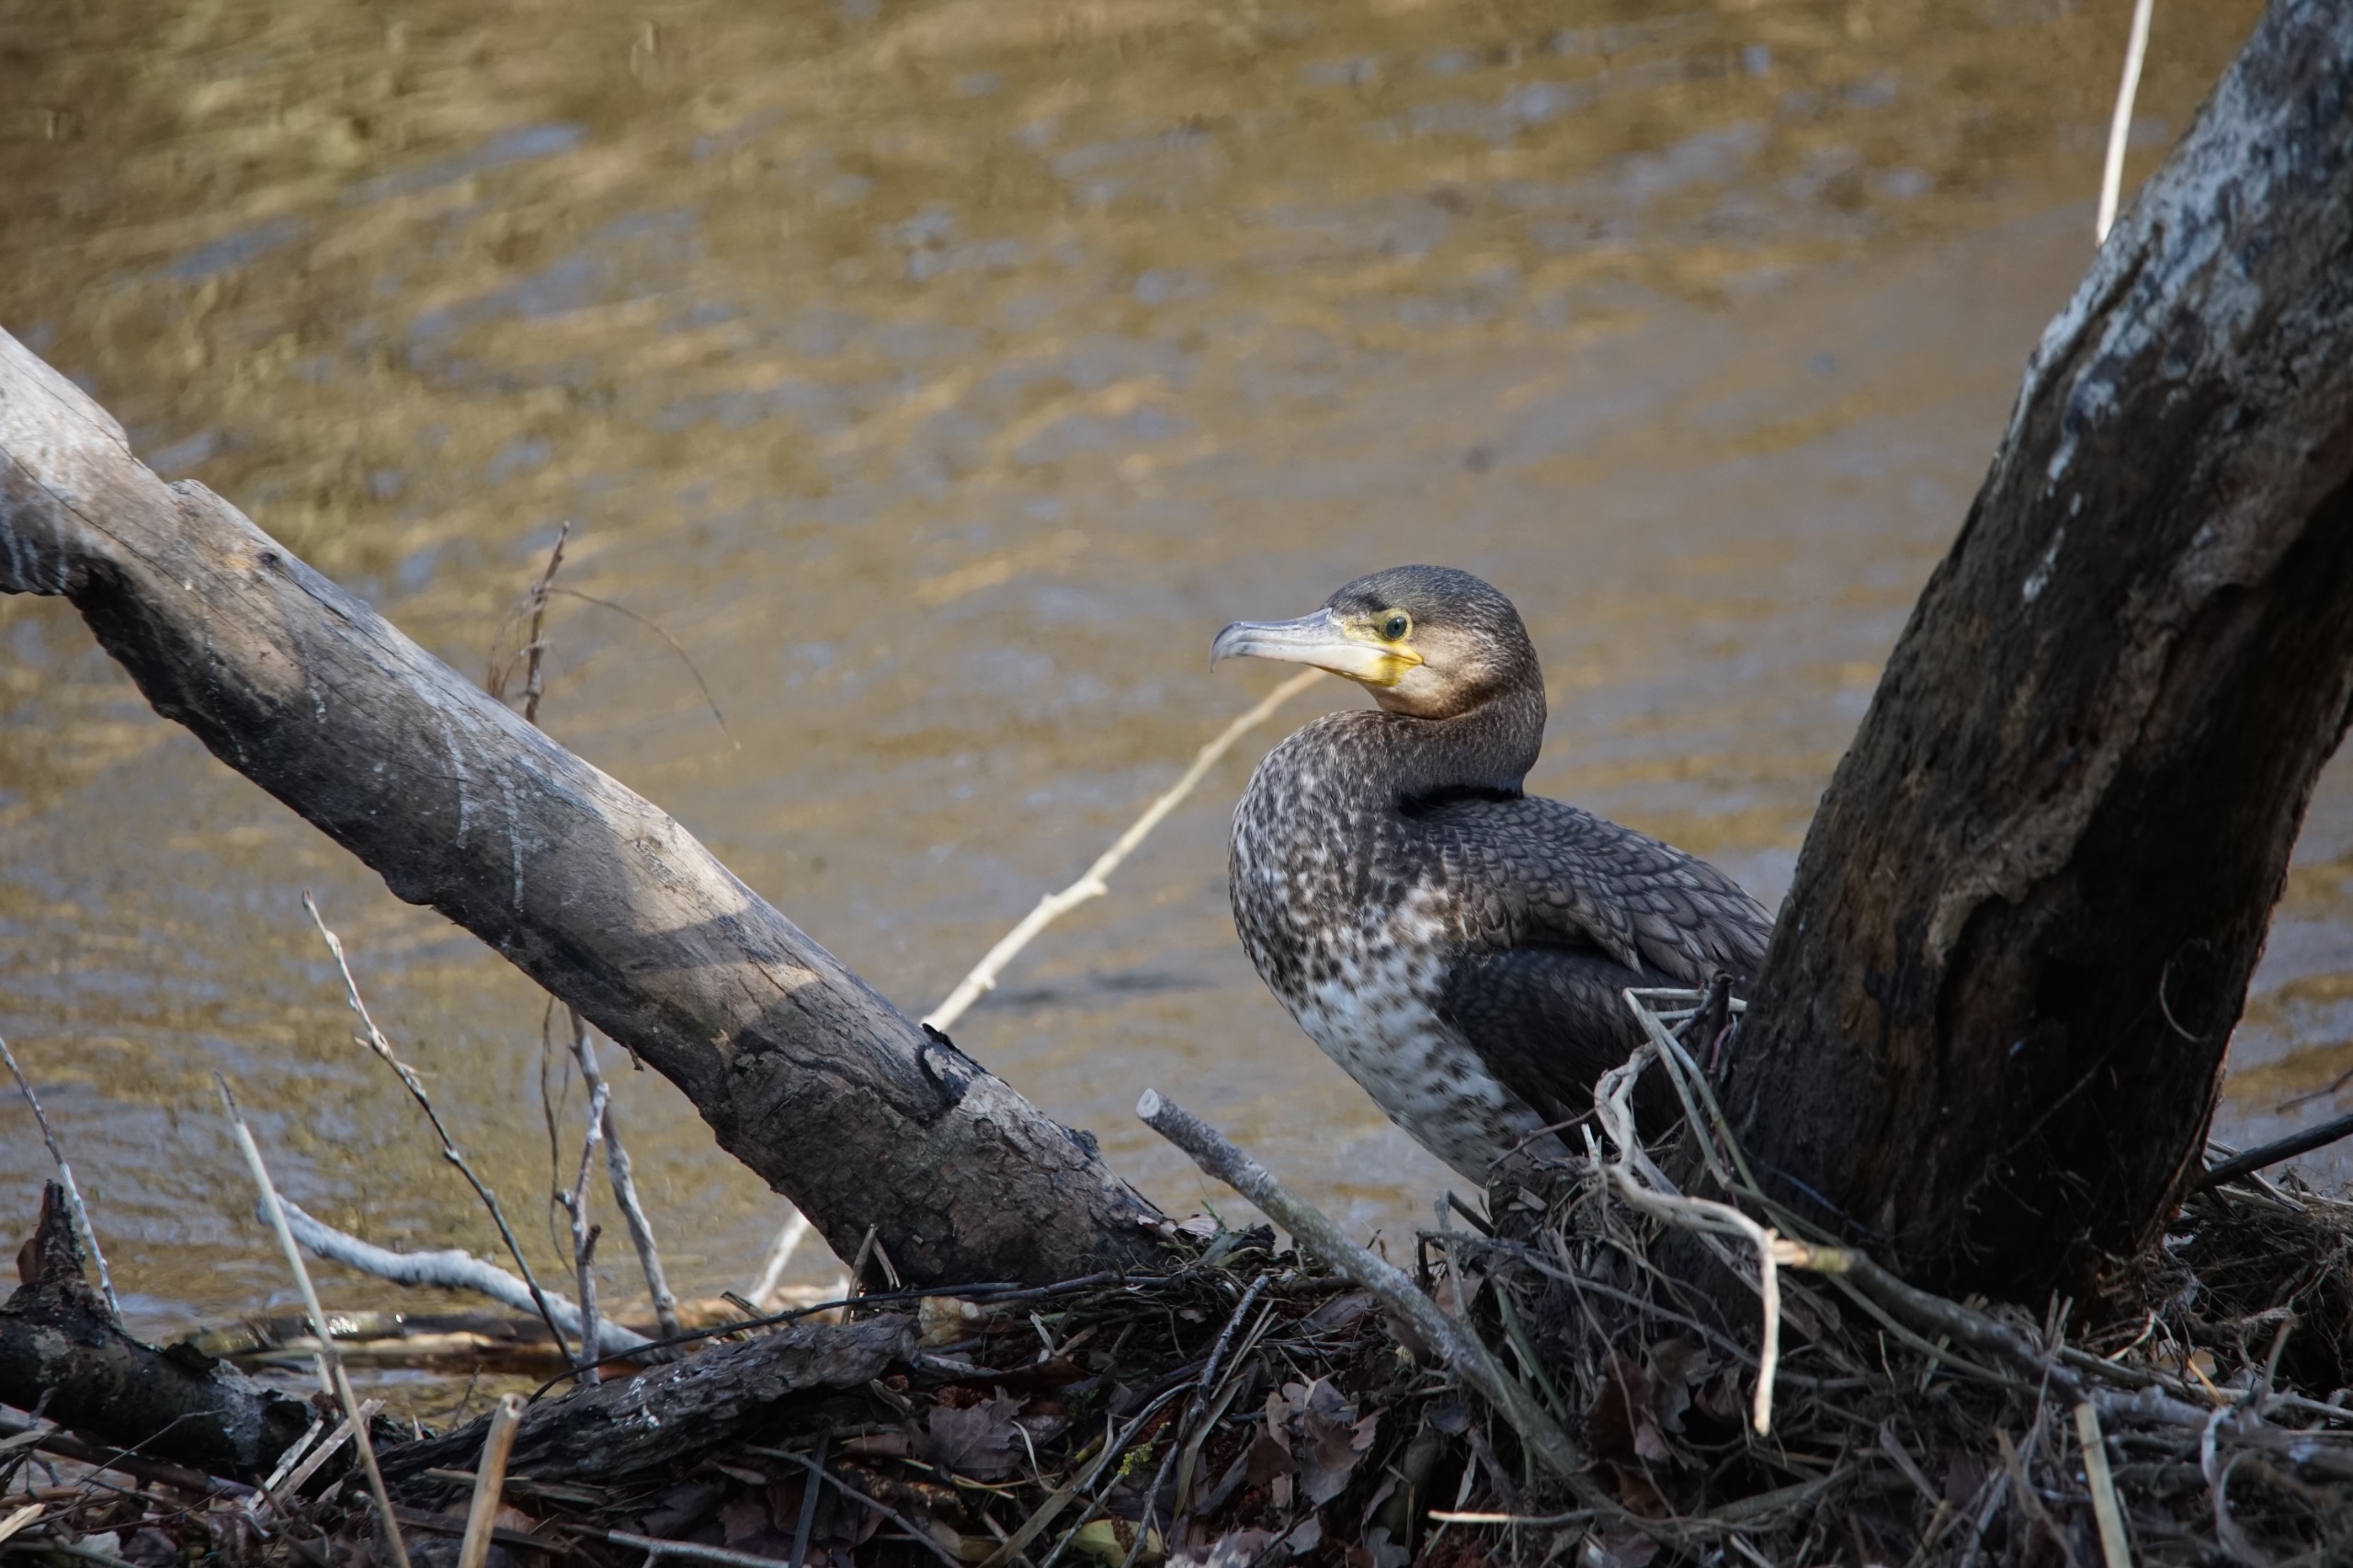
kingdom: Animalia
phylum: Chordata
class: Aves
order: Suliformes
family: Phalacrocoracidae
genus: Phalacrocorax
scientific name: Phalacrocorax carbo
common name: Skarv
